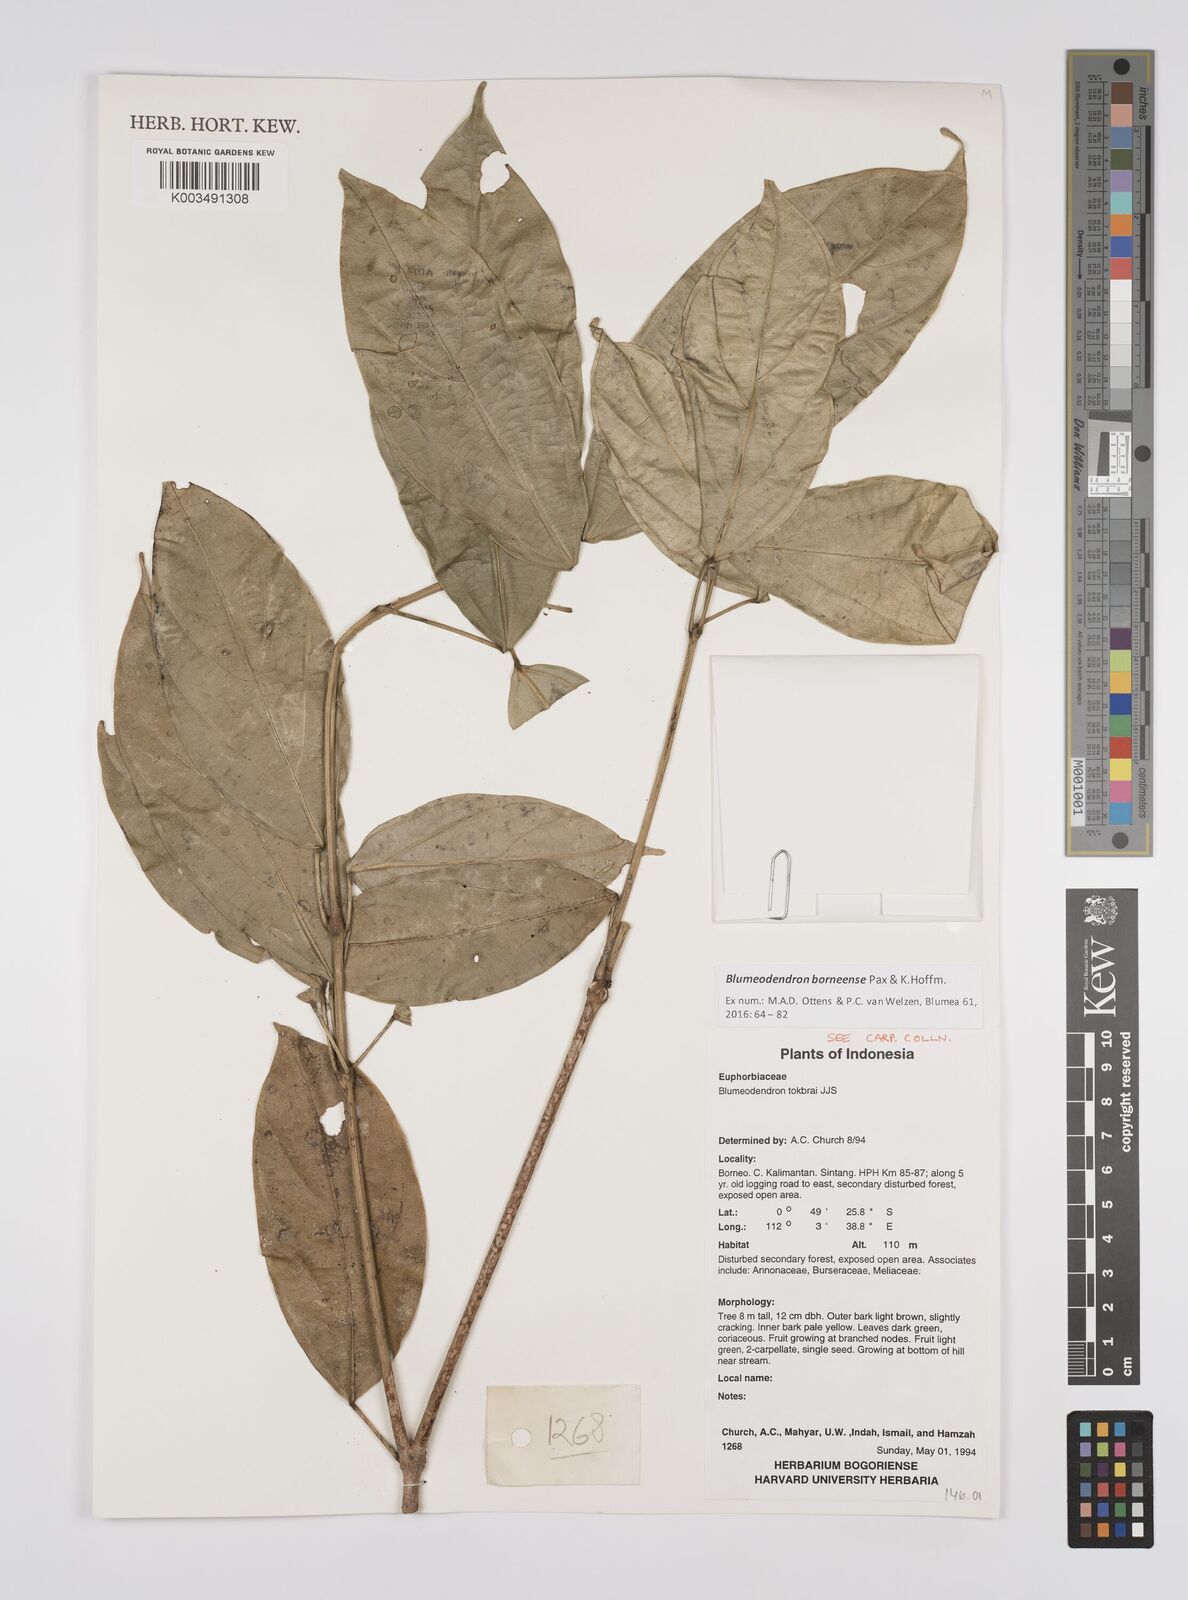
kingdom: Plantae
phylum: Tracheophyta
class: Magnoliopsida
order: Malpighiales
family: Euphorbiaceae
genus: Blumeodendron
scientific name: Blumeodendron borneense
